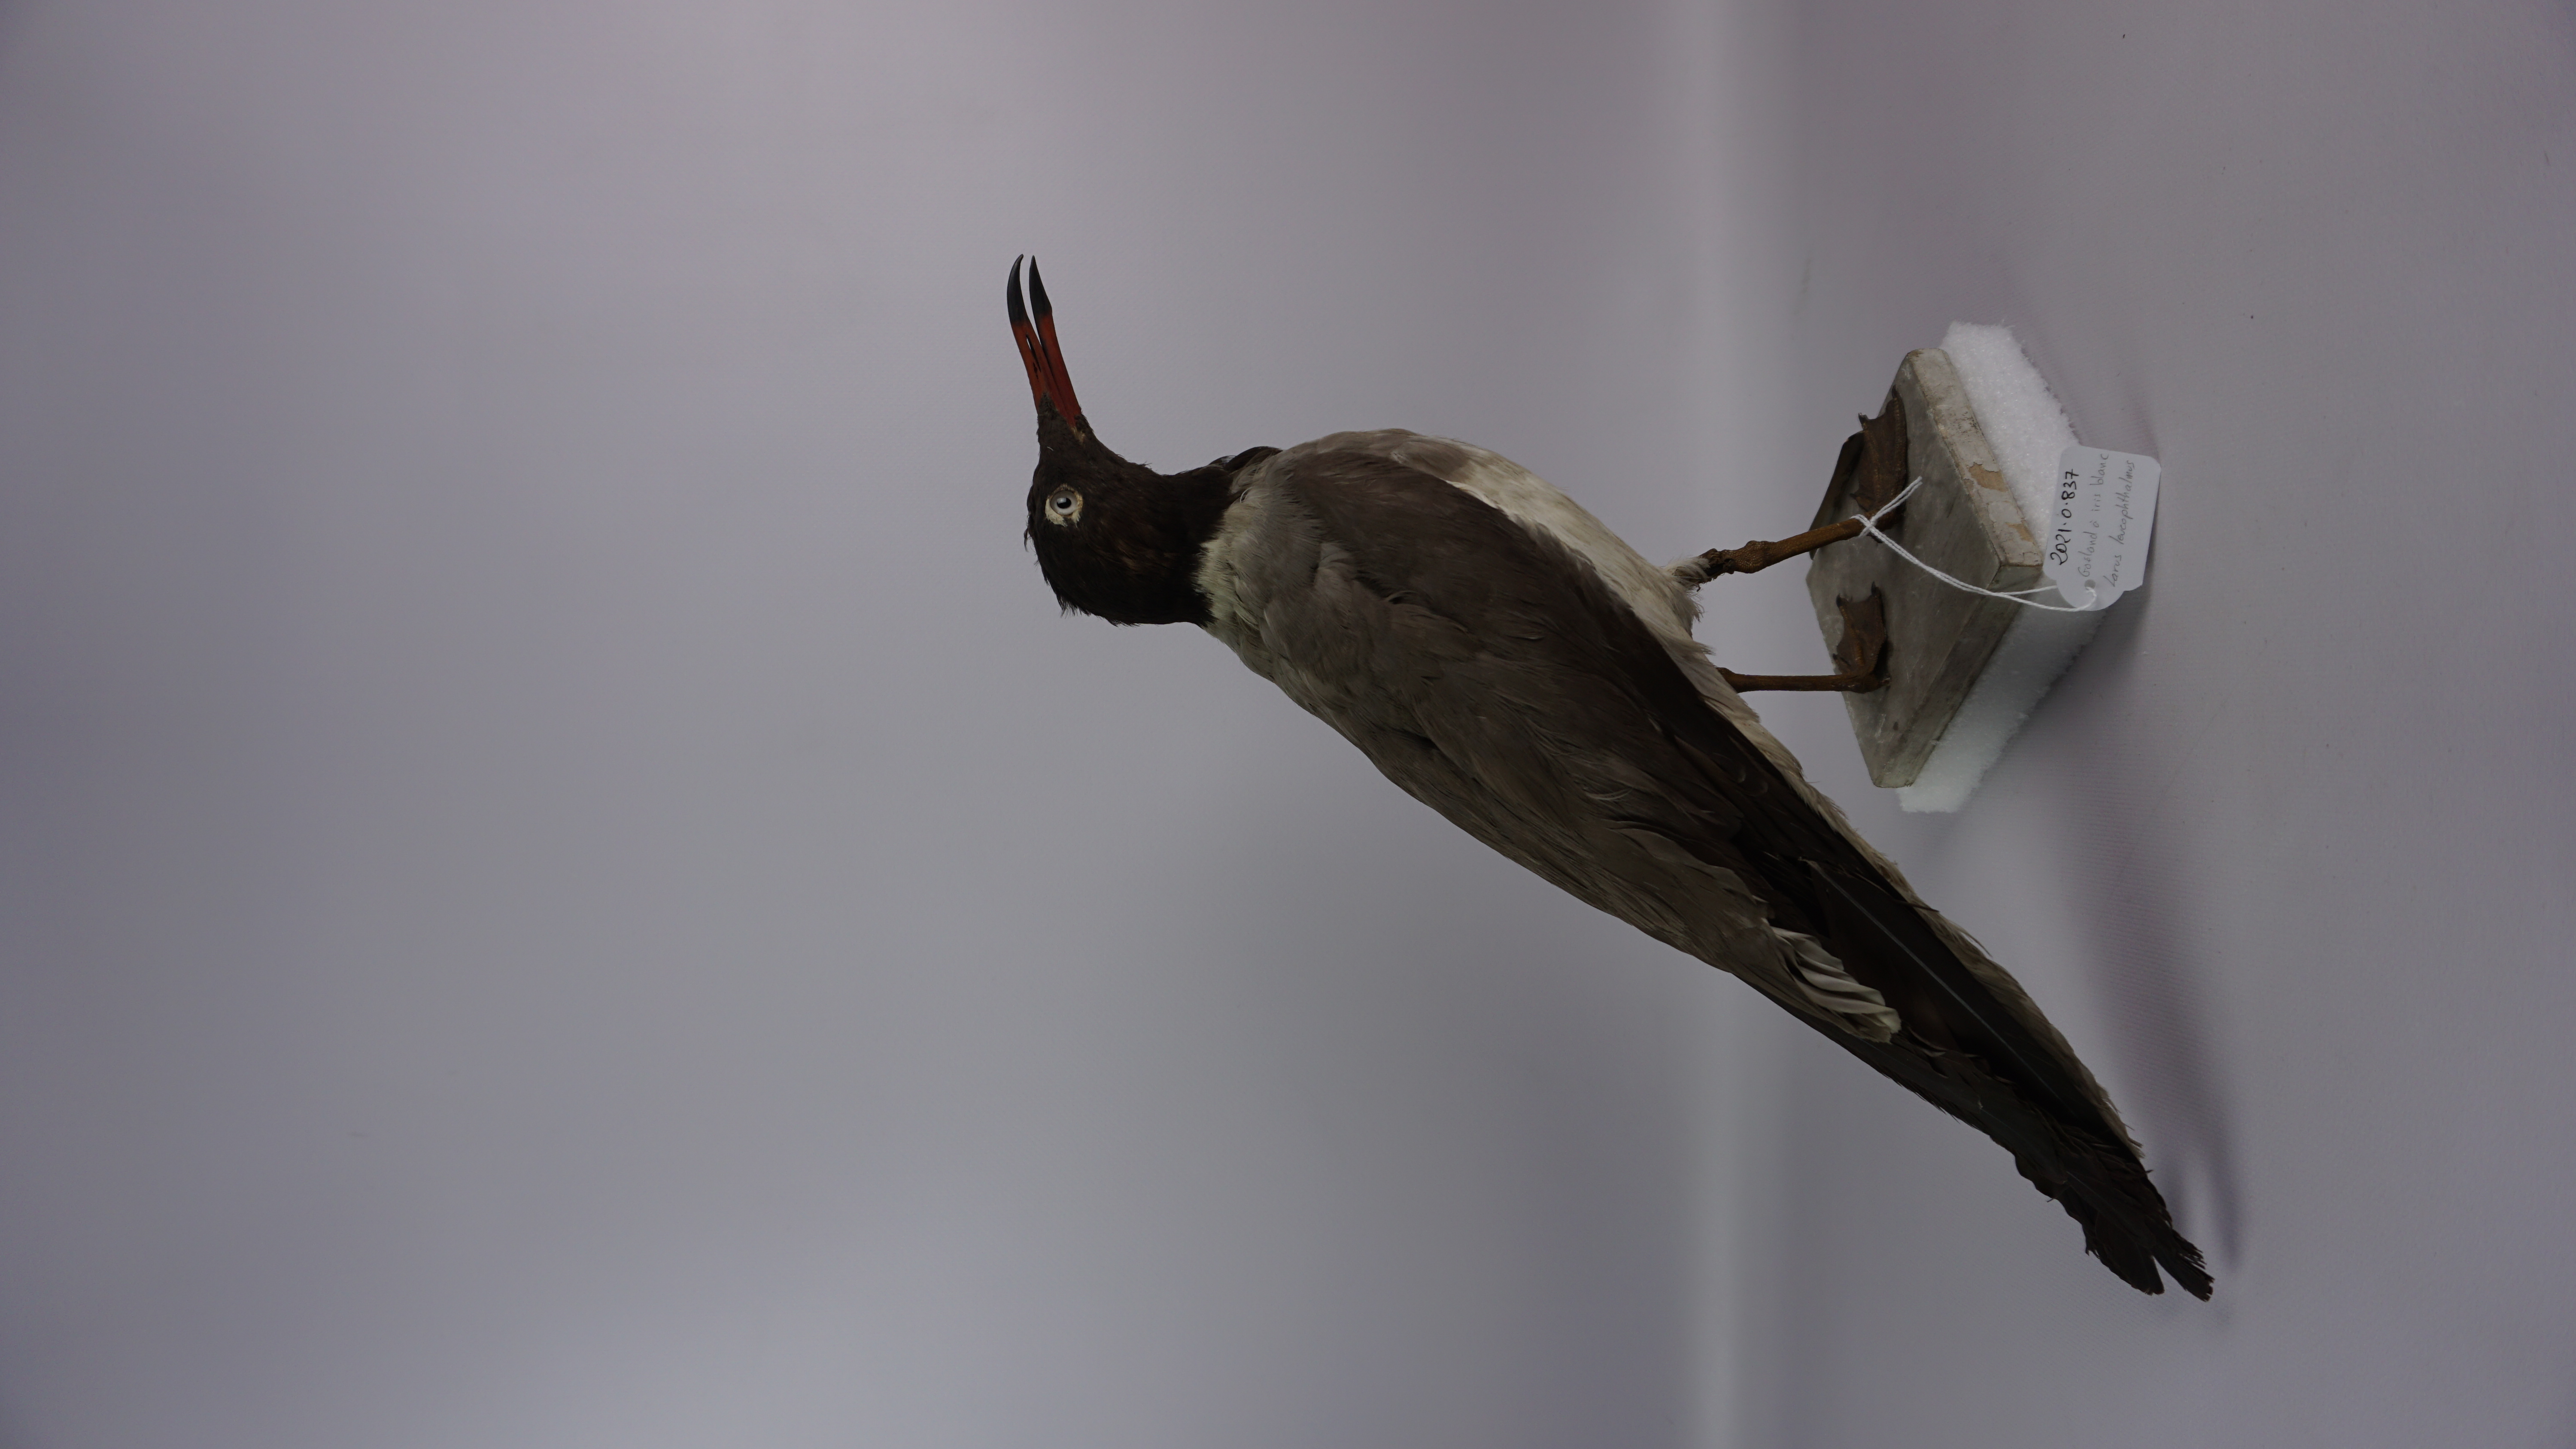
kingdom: Animalia
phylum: Chordata
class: Aves
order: Charadriiformes
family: Laridae
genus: Ichthyaetus
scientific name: Ichthyaetus leucophthalmus
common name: White-eyed gull
